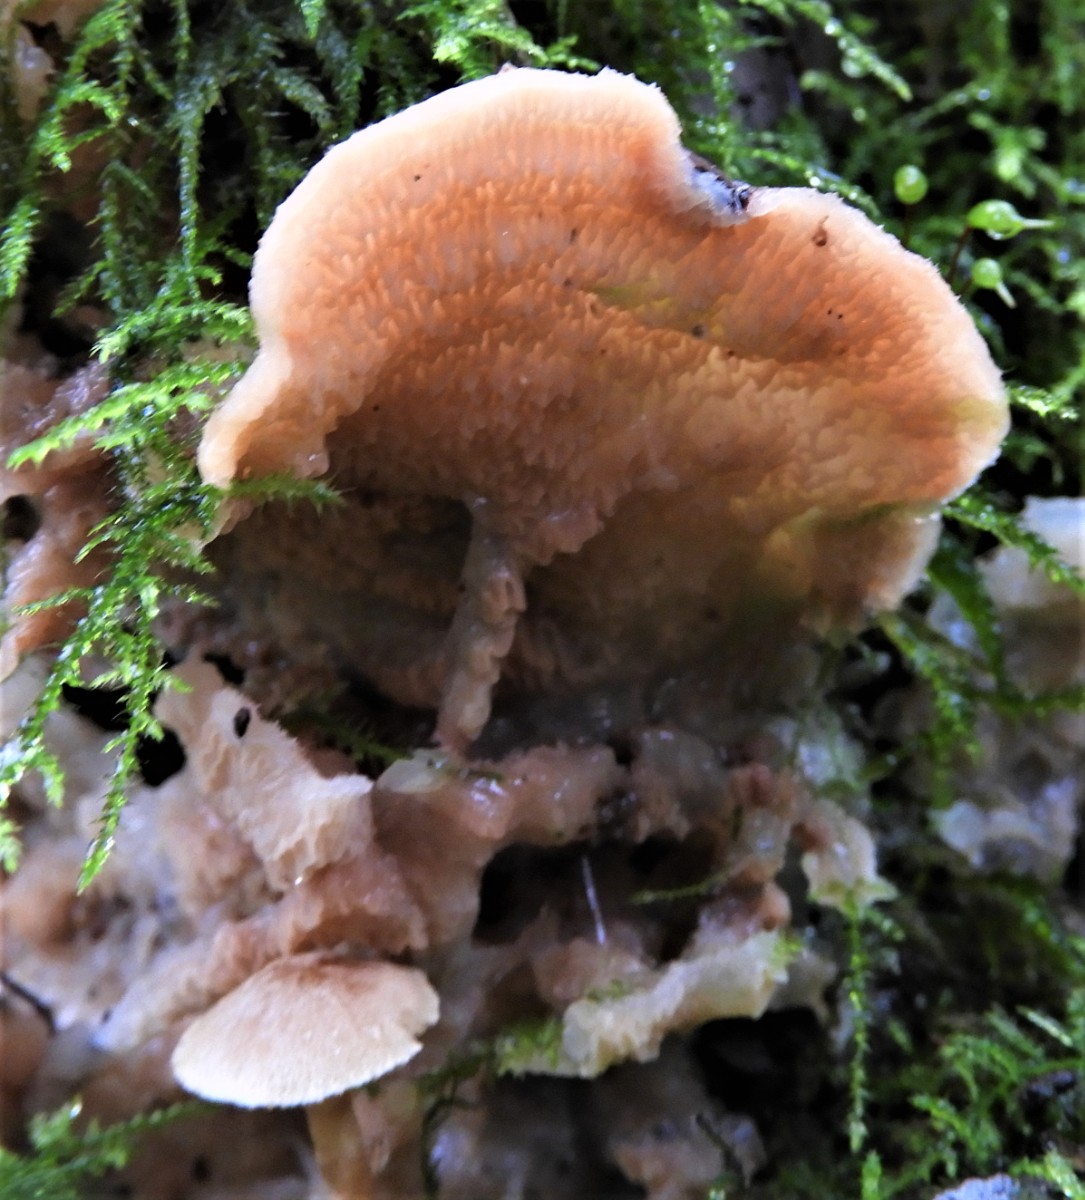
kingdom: Fungi
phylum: Basidiomycota
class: Agaricomycetes
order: Polyporales
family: Meruliaceae
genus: Phlebia
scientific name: Phlebia tremellosa
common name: bævrende åresvamp
